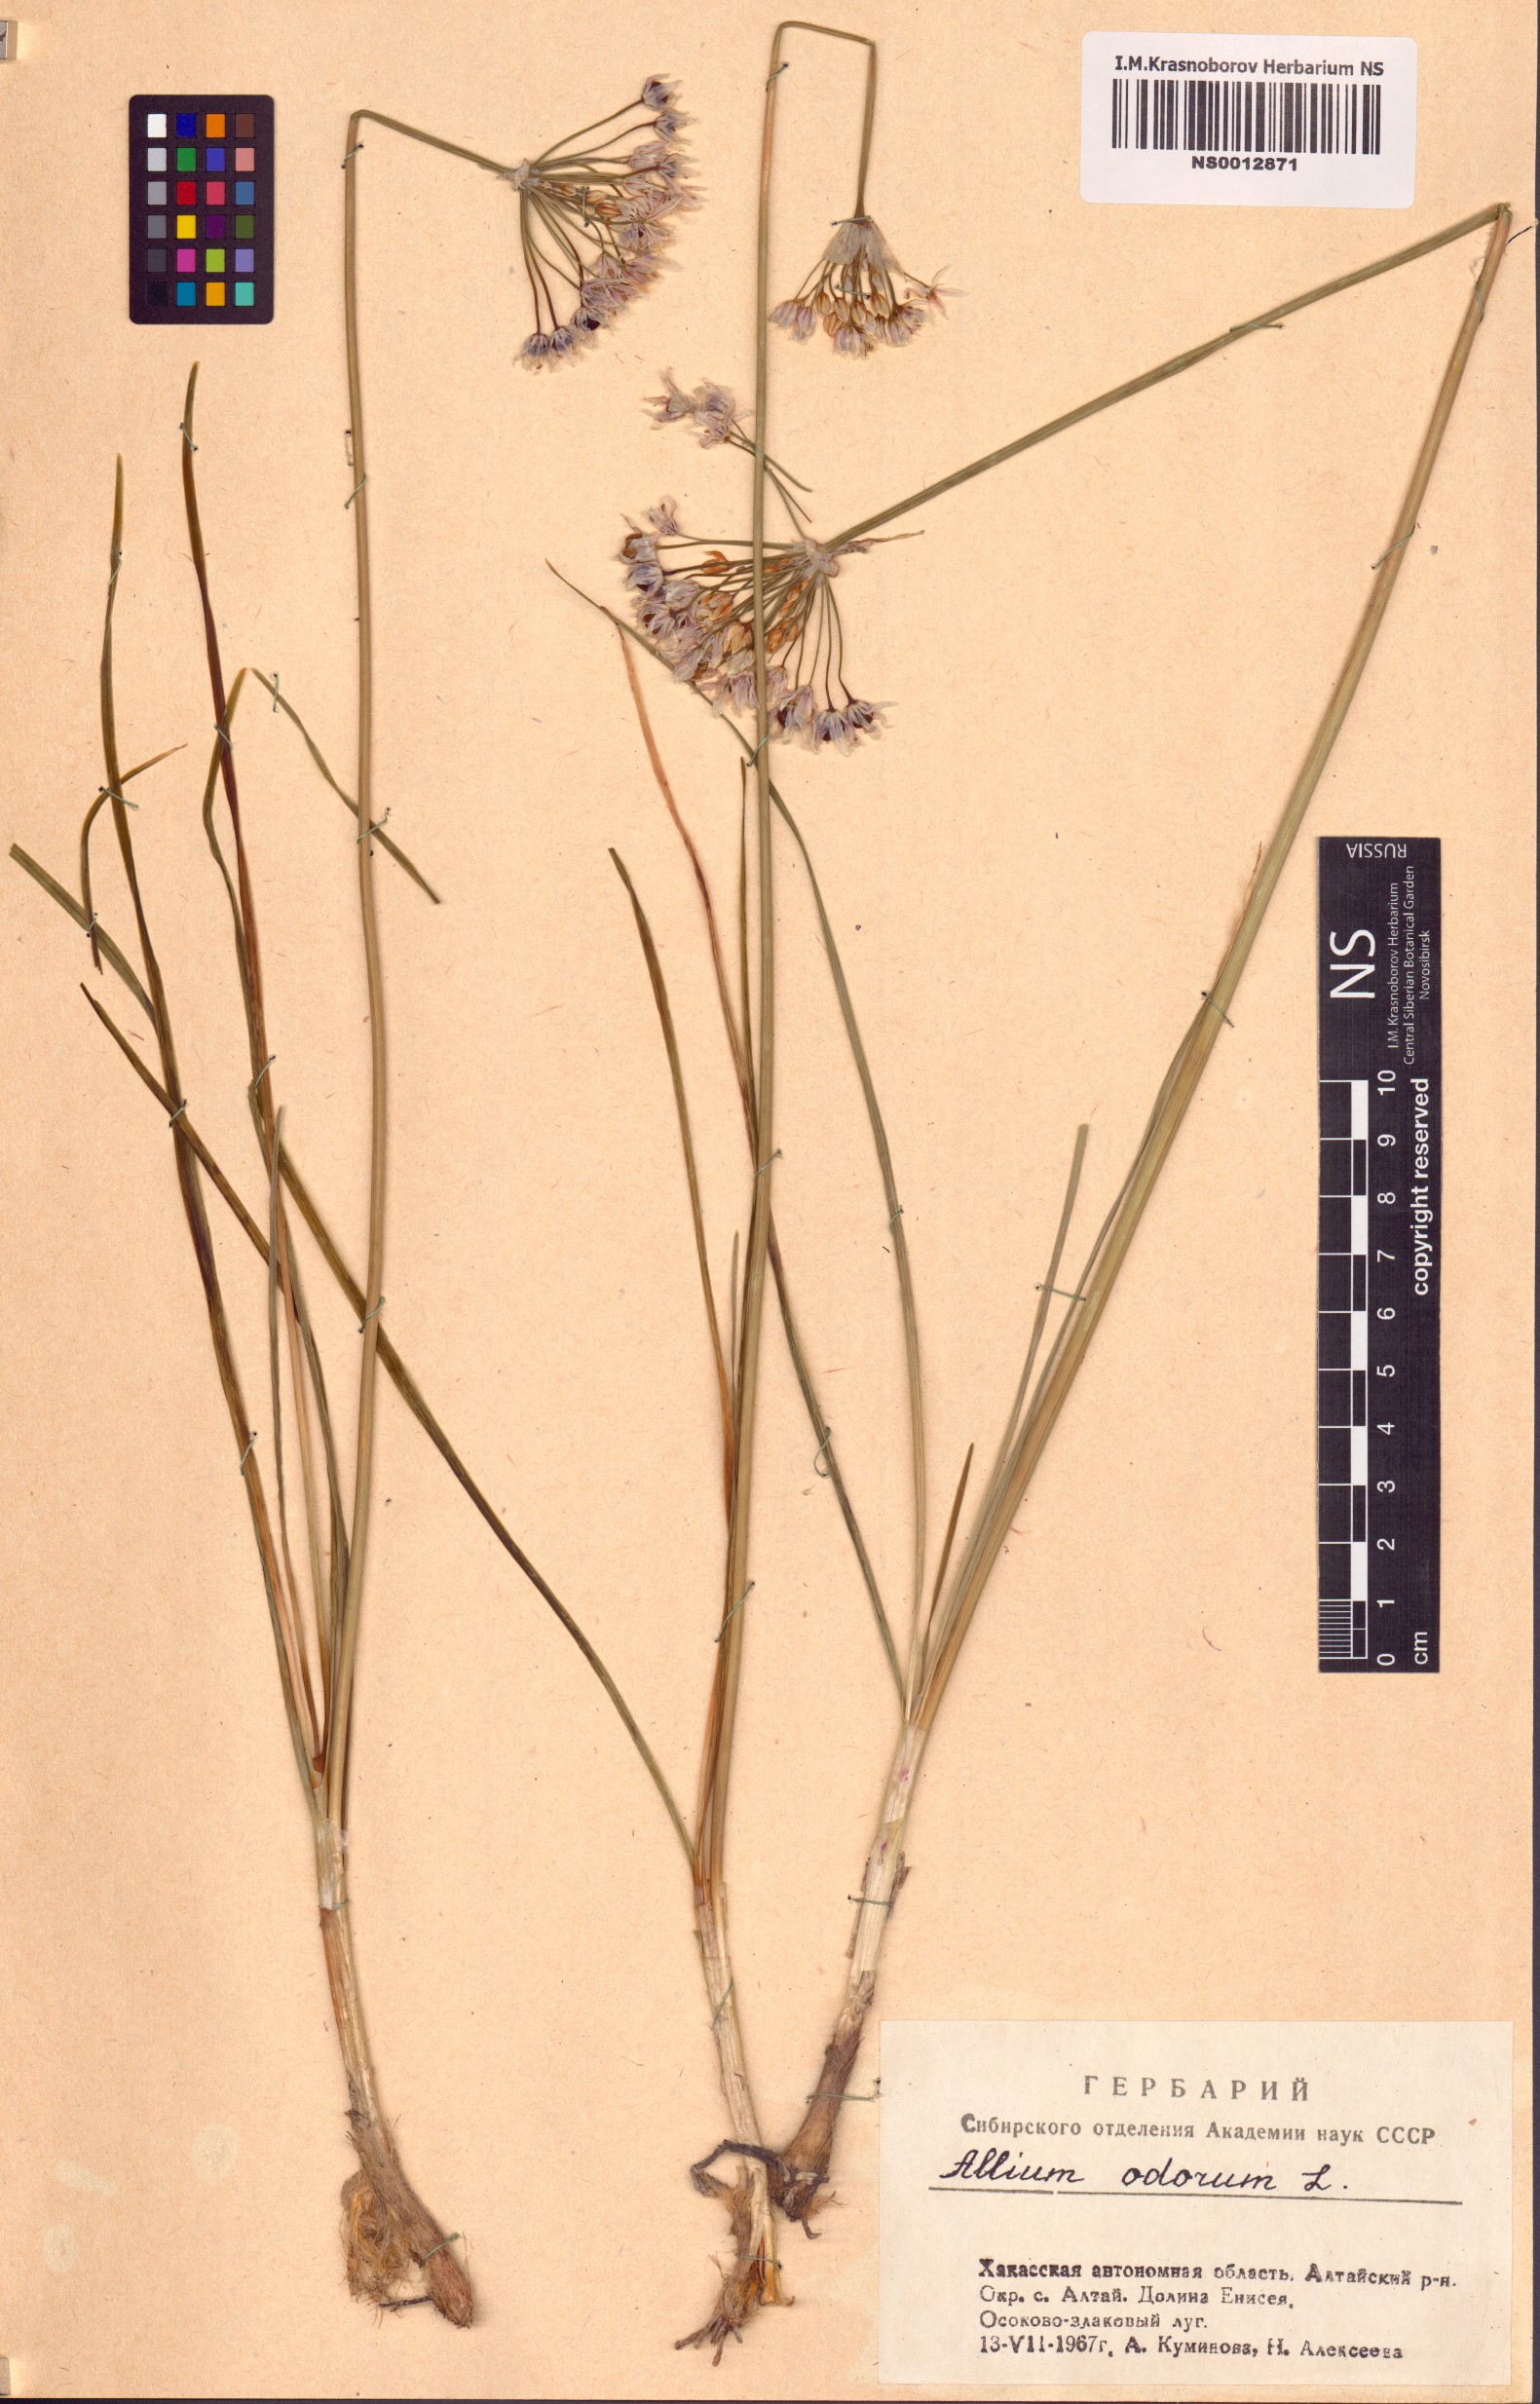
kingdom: Plantae
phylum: Tracheophyta
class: Liliopsida
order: Asparagales
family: Amaryllidaceae
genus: Allium
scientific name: Allium ramosum
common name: Fragrant garlic
